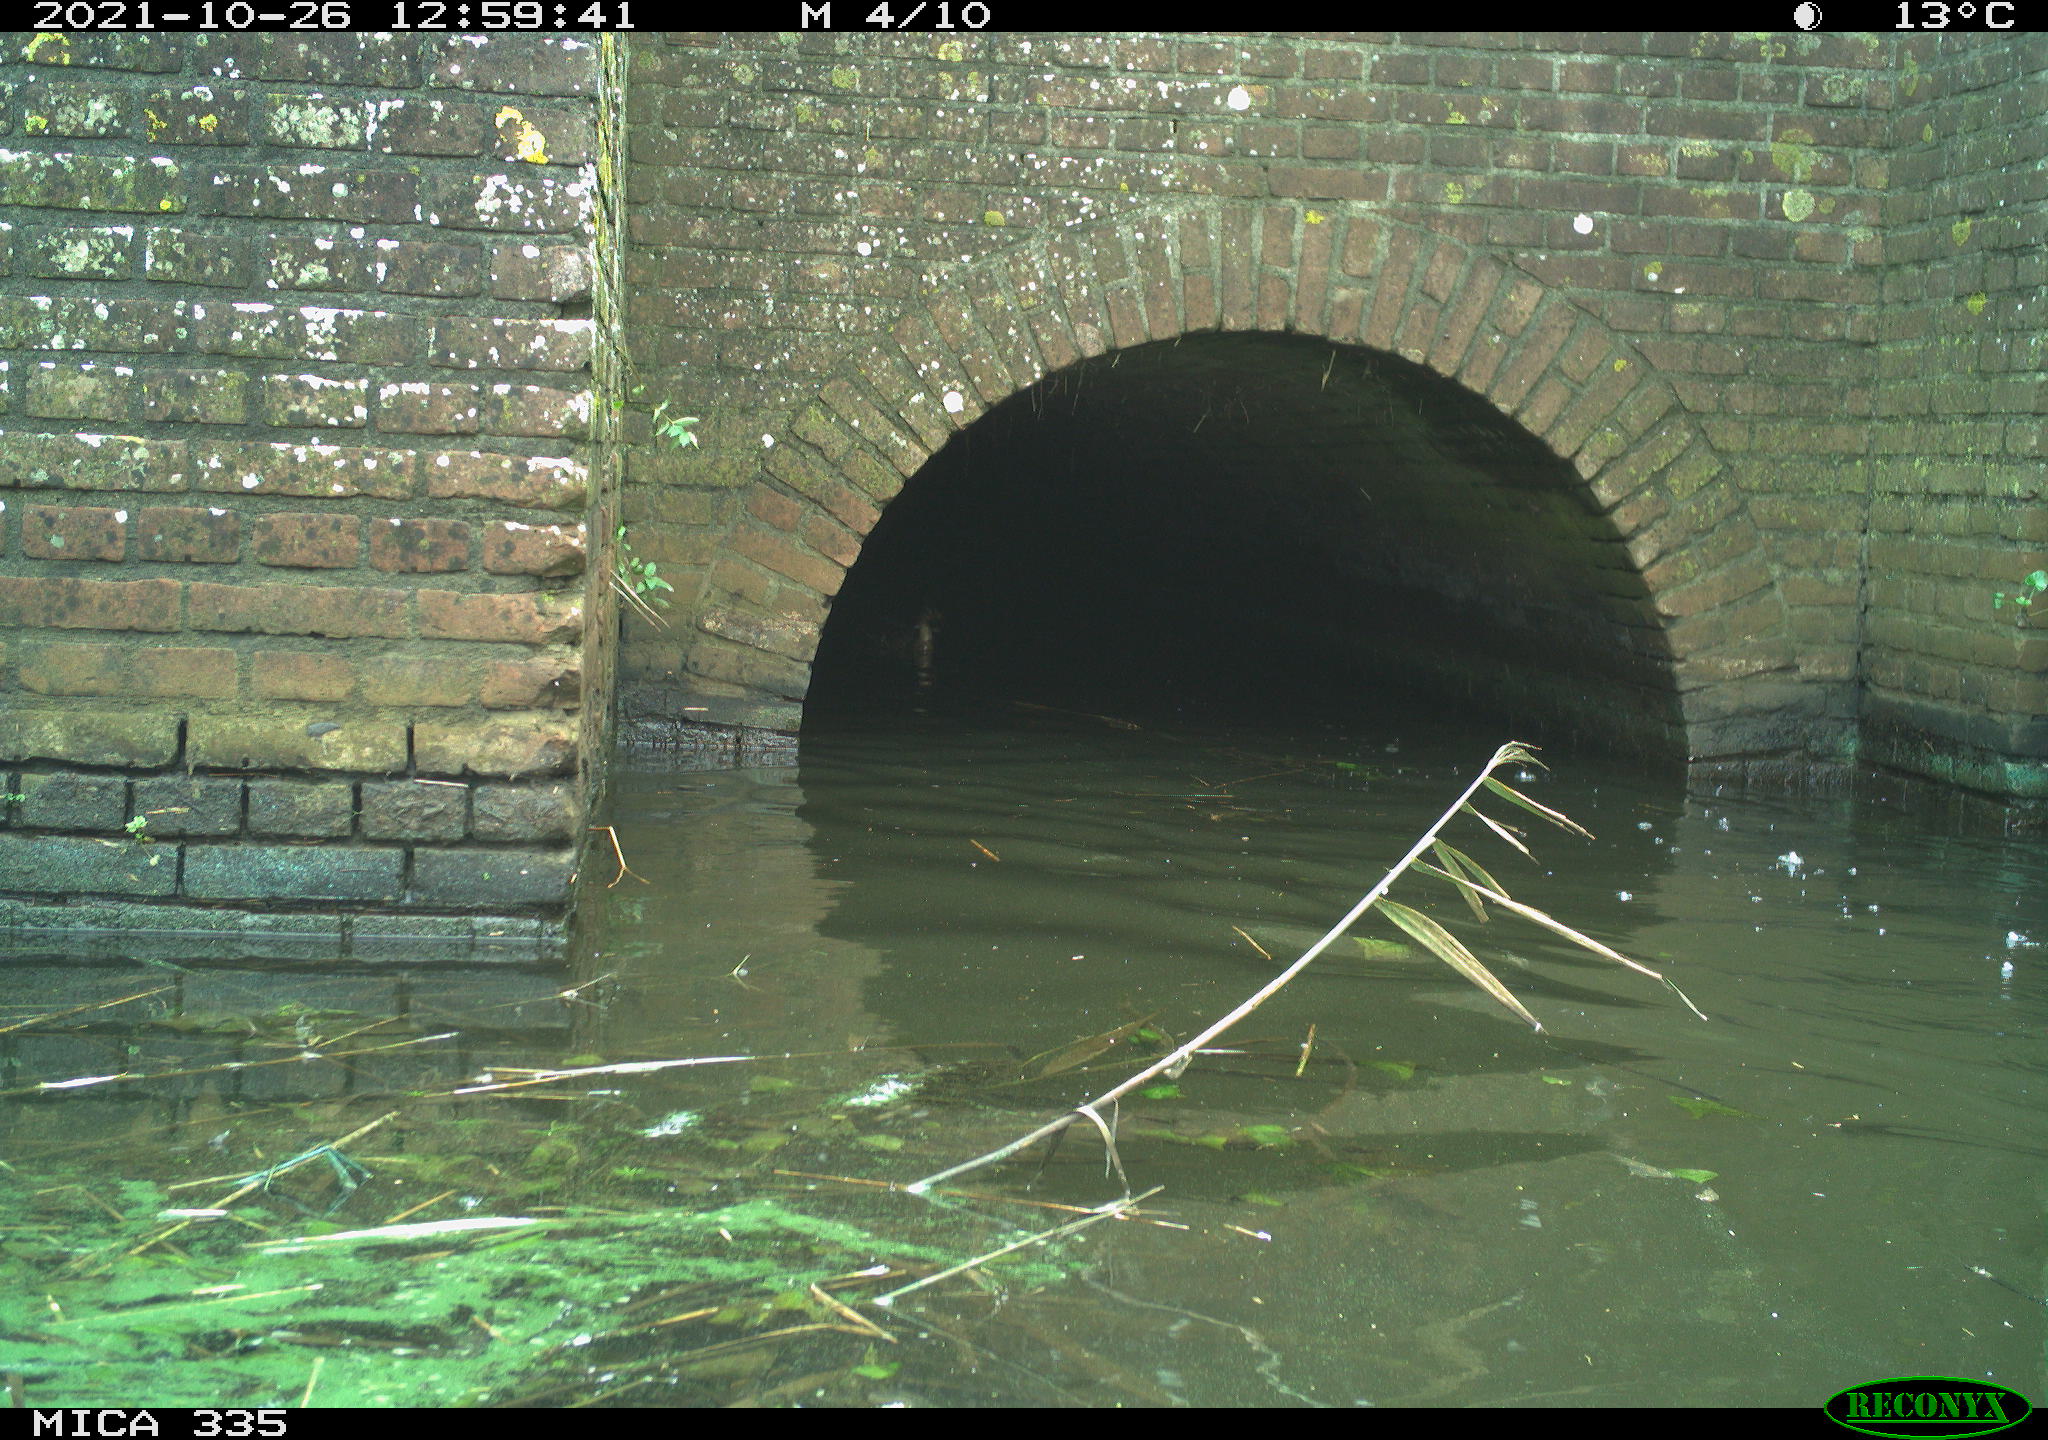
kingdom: Animalia
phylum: Chordata
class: Aves
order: Suliformes
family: Phalacrocoracidae
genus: Phalacrocorax
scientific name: Phalacrocorax carbo
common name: Great cormorant
